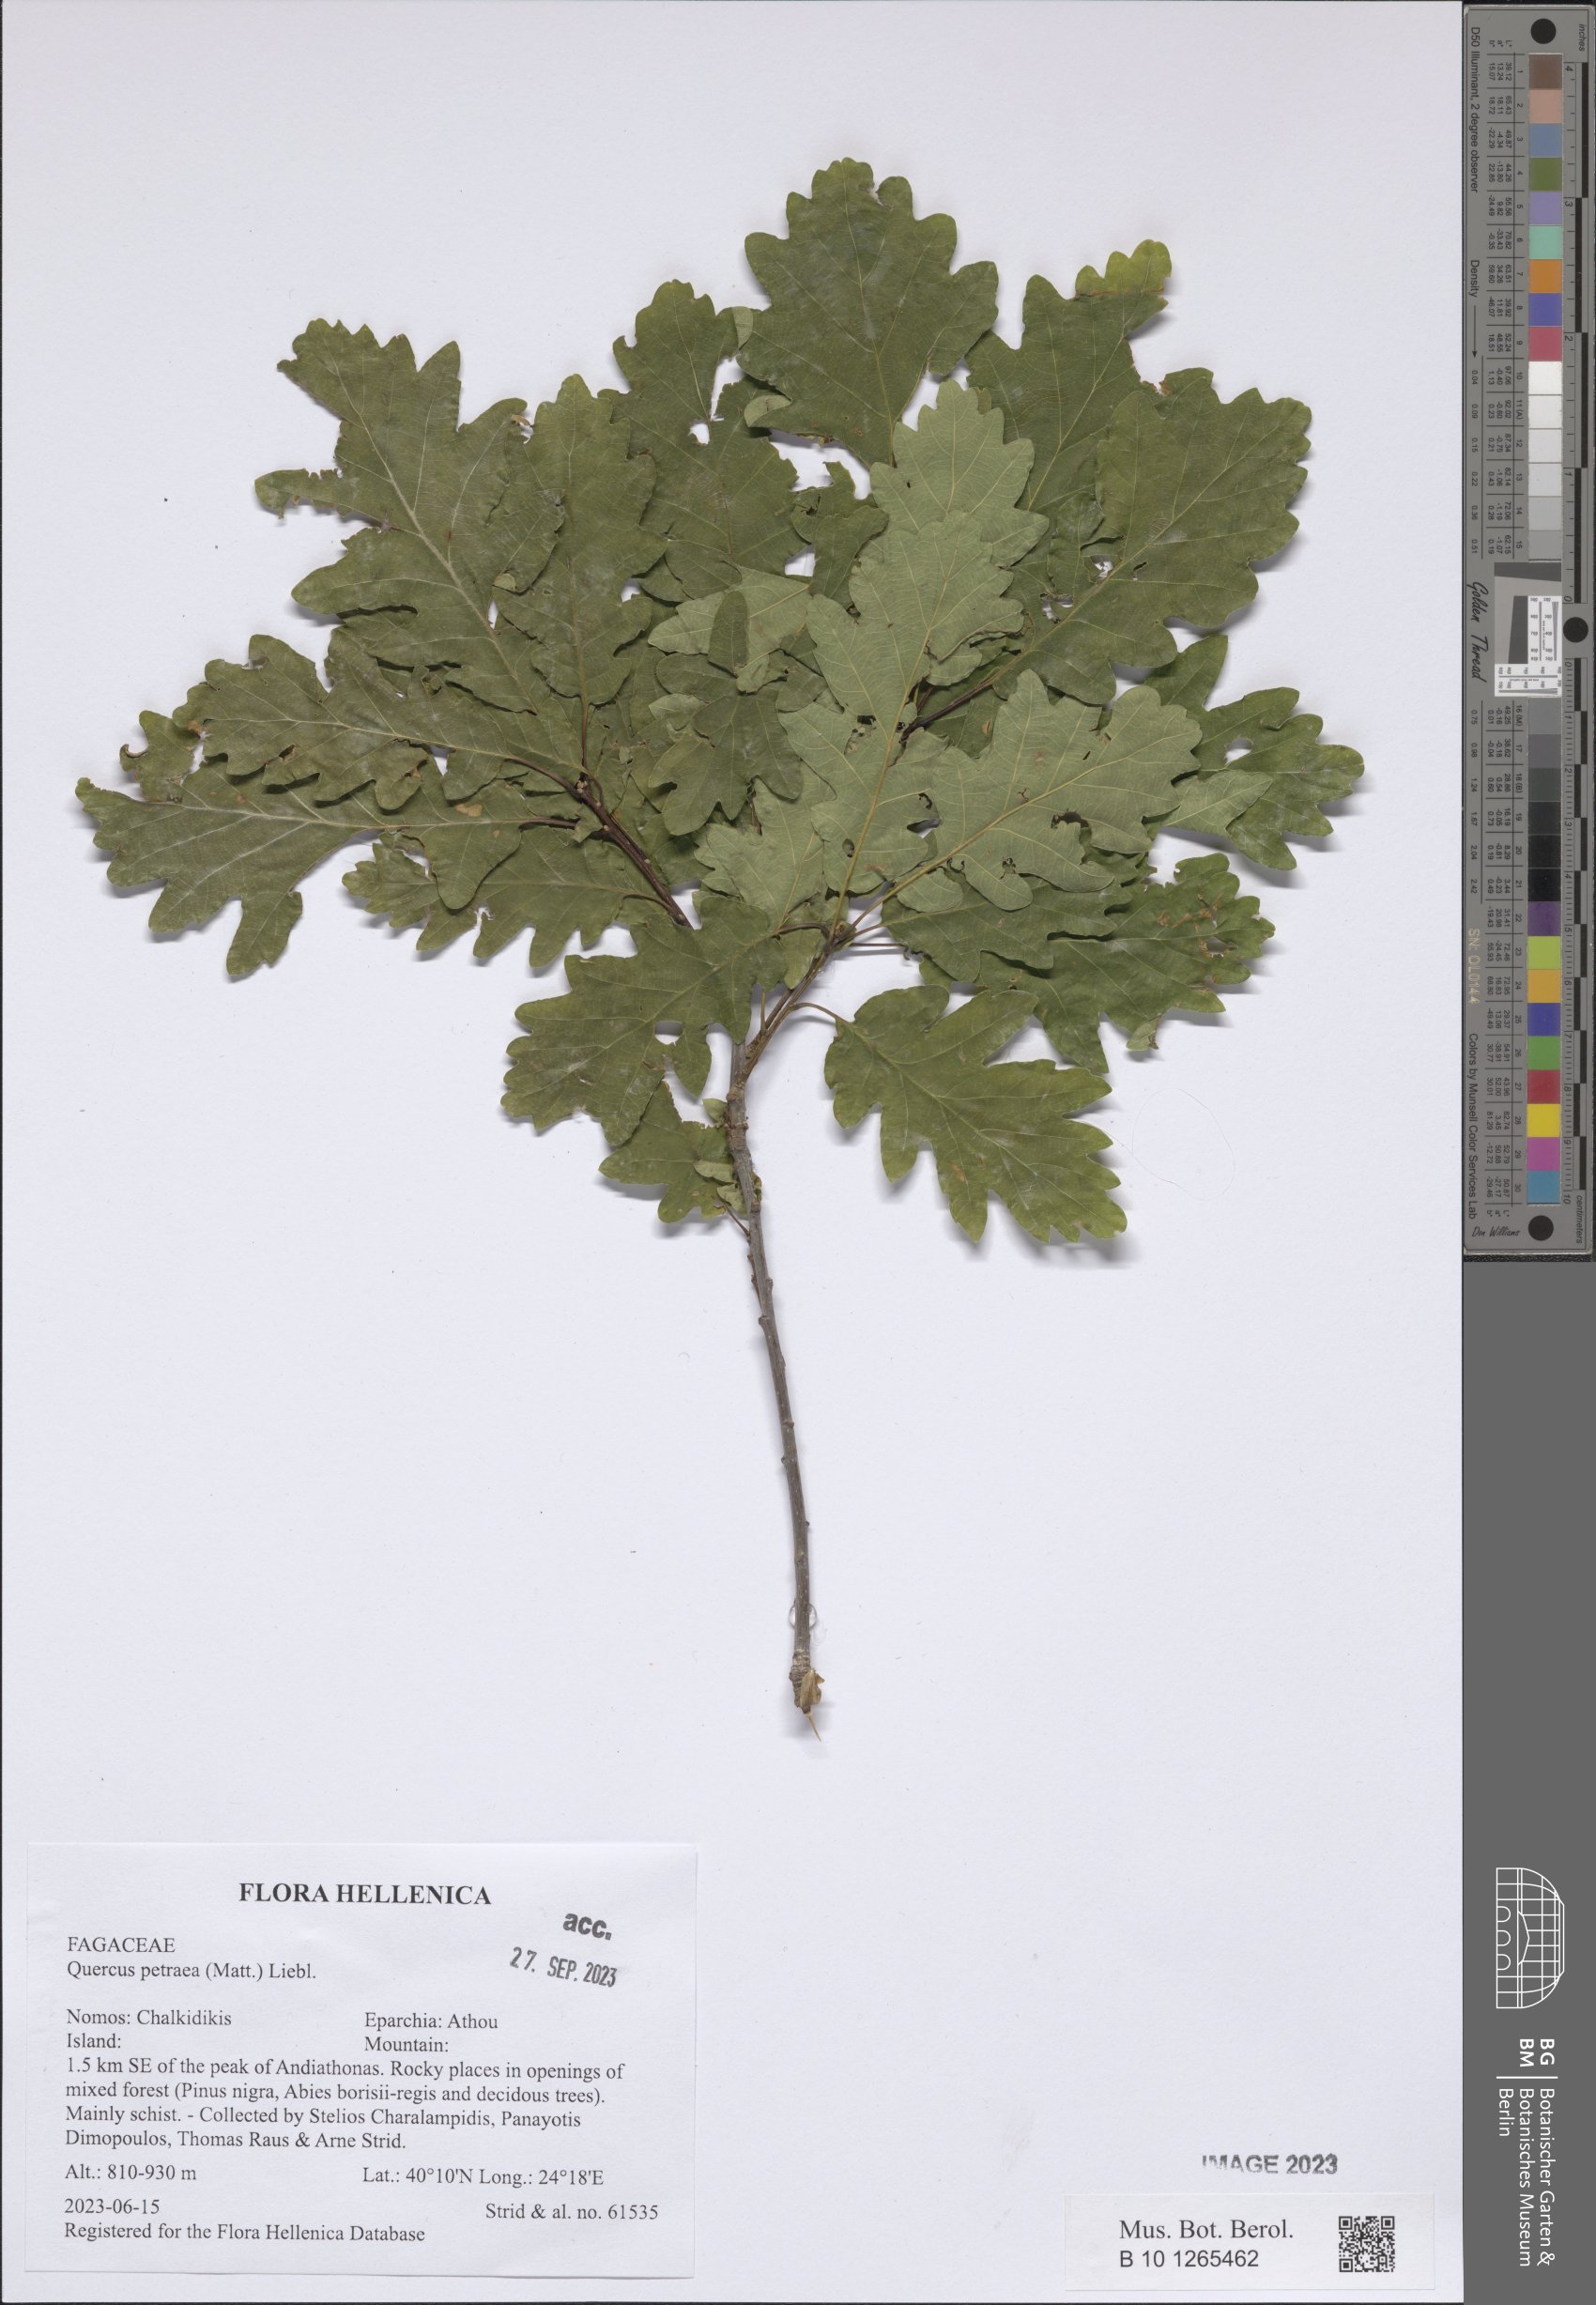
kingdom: Plantae
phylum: Tracheophyta
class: Magnoliopsida
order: Fagales
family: Fagaceae
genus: Quercus
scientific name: Quercus petraea
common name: Sessile oak
